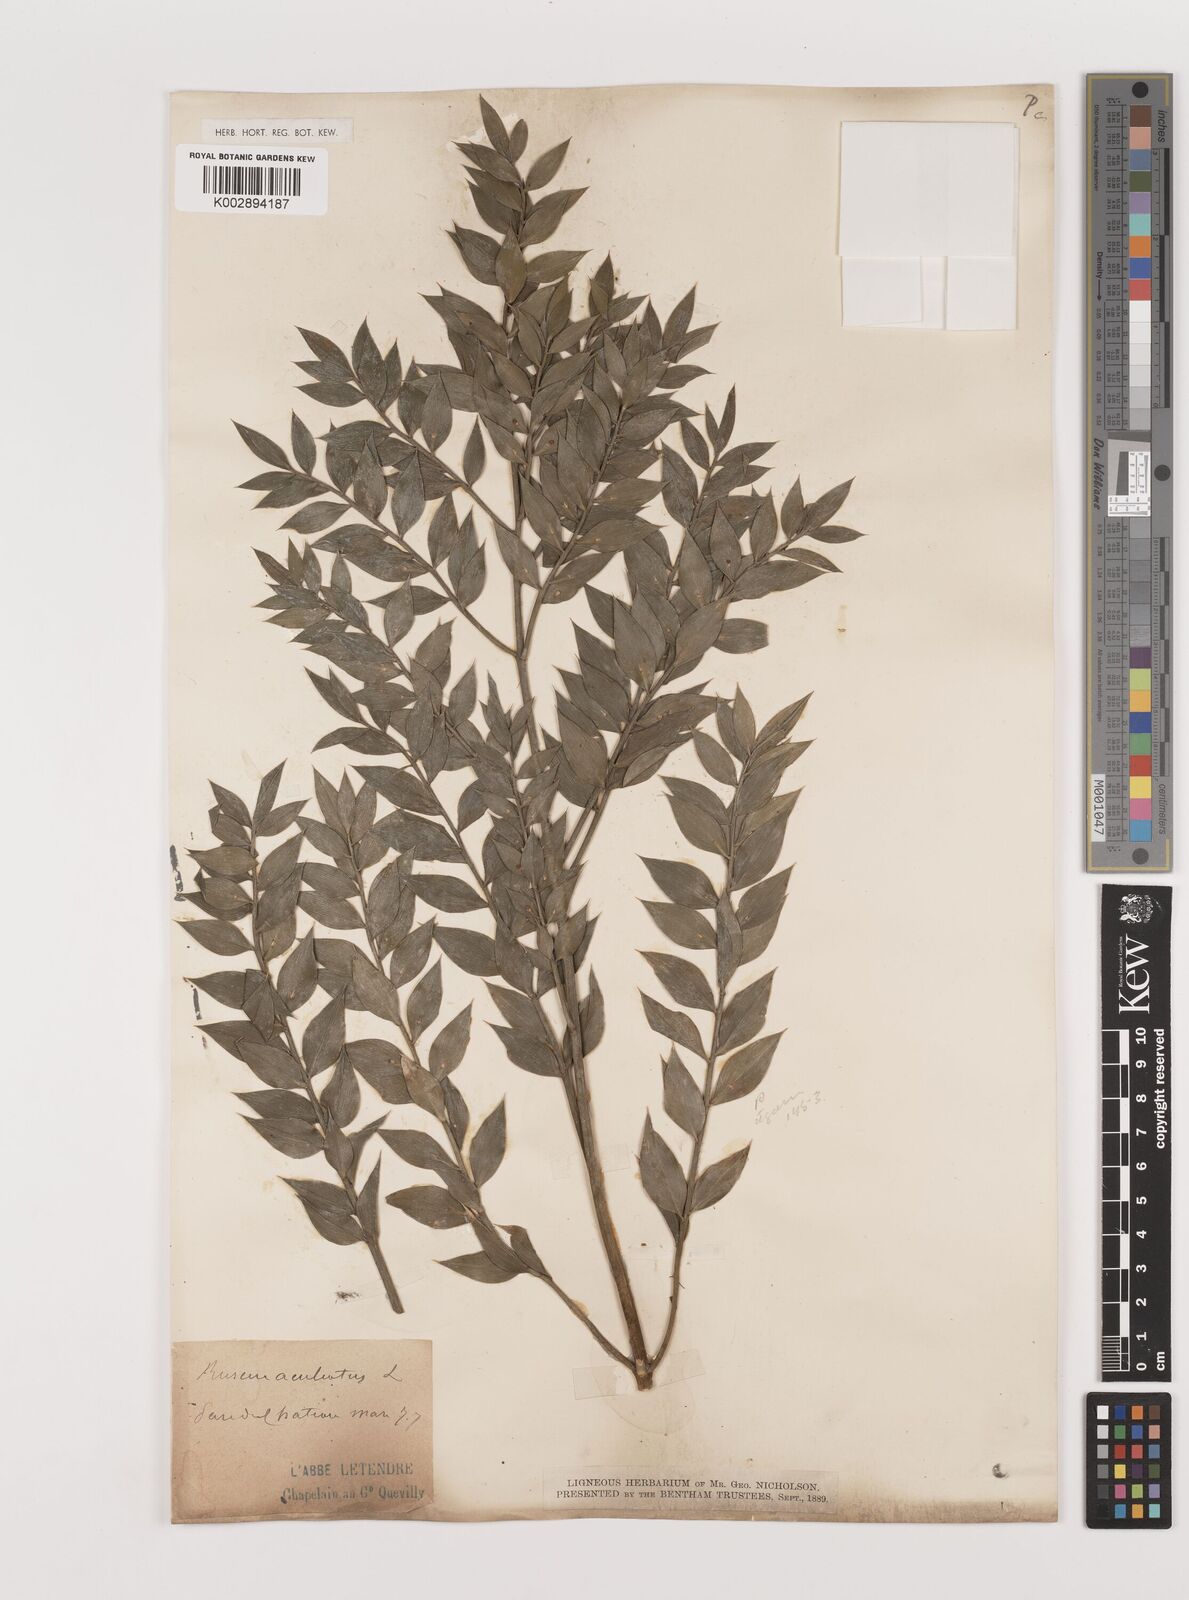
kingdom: Plantae
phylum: Tracheophyta
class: Liliopsida
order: Asparagales
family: Asparagaceae
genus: Ruscus
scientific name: Ruscus aculeatus
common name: Butcher's-broom
